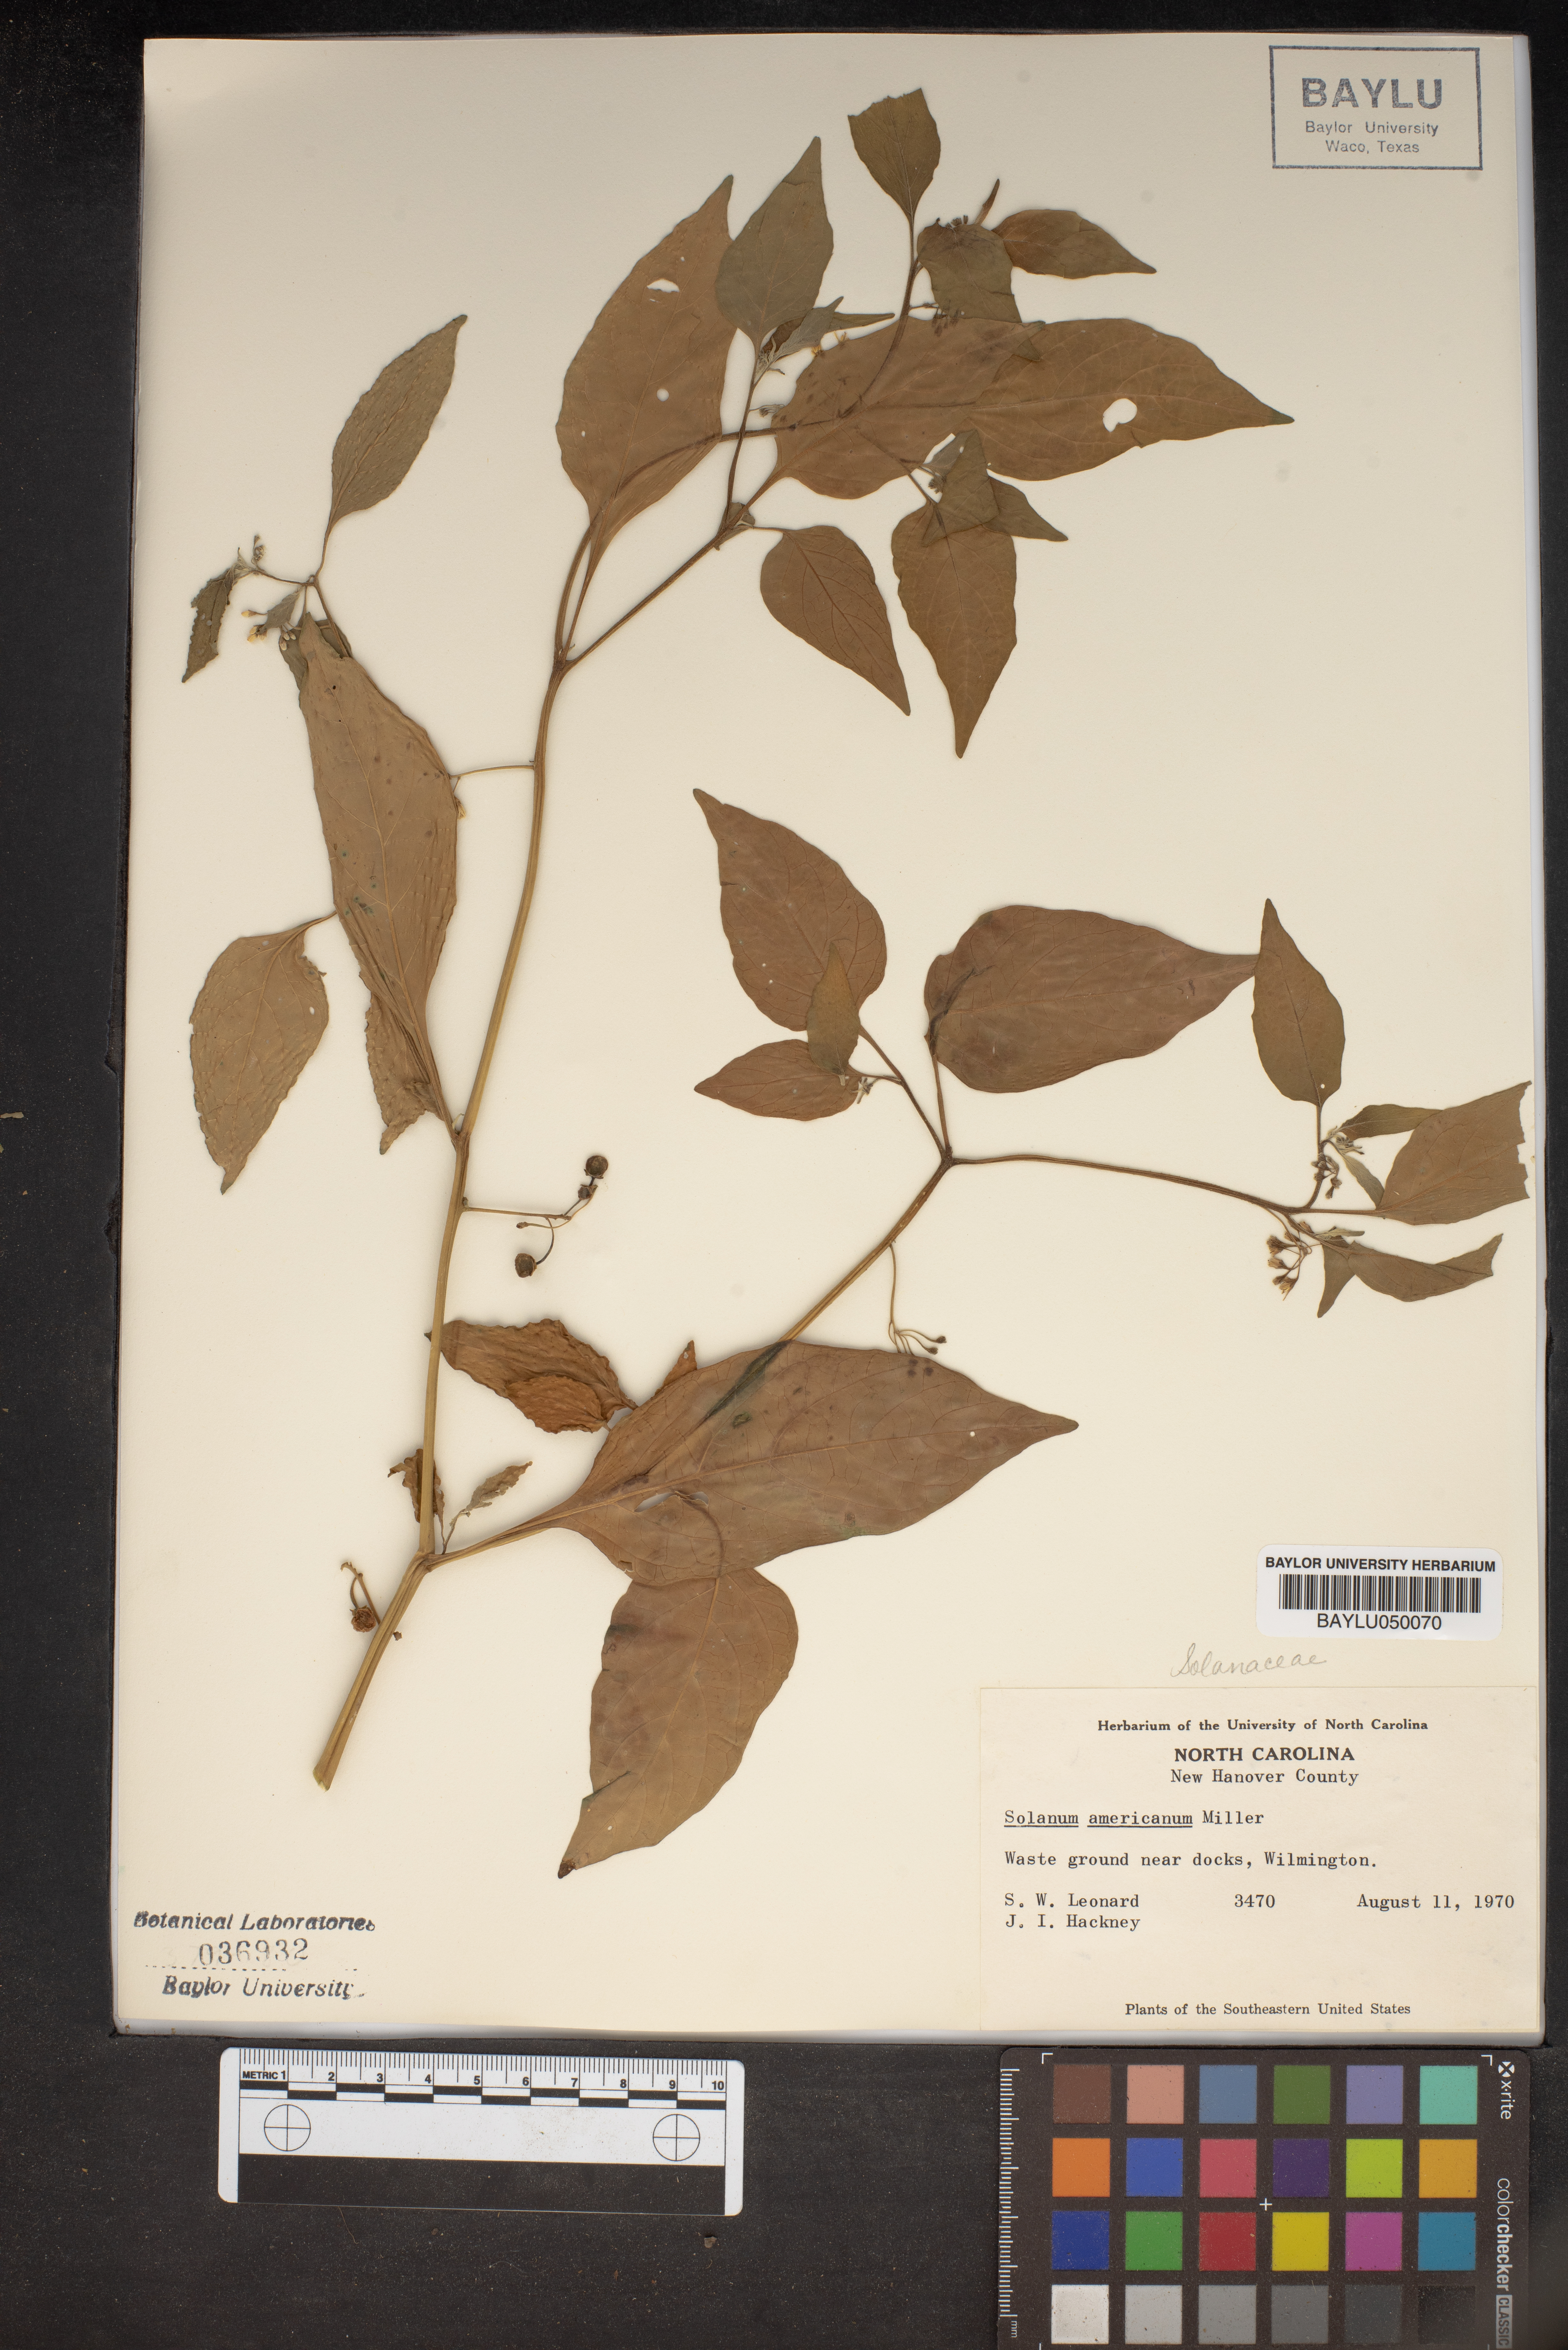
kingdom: Plantae
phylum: Tracheophyta
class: Magnoliopsida
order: Solanales
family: Solanaceae
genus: Solanum
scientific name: Solanum americanum
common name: American black nightshade
